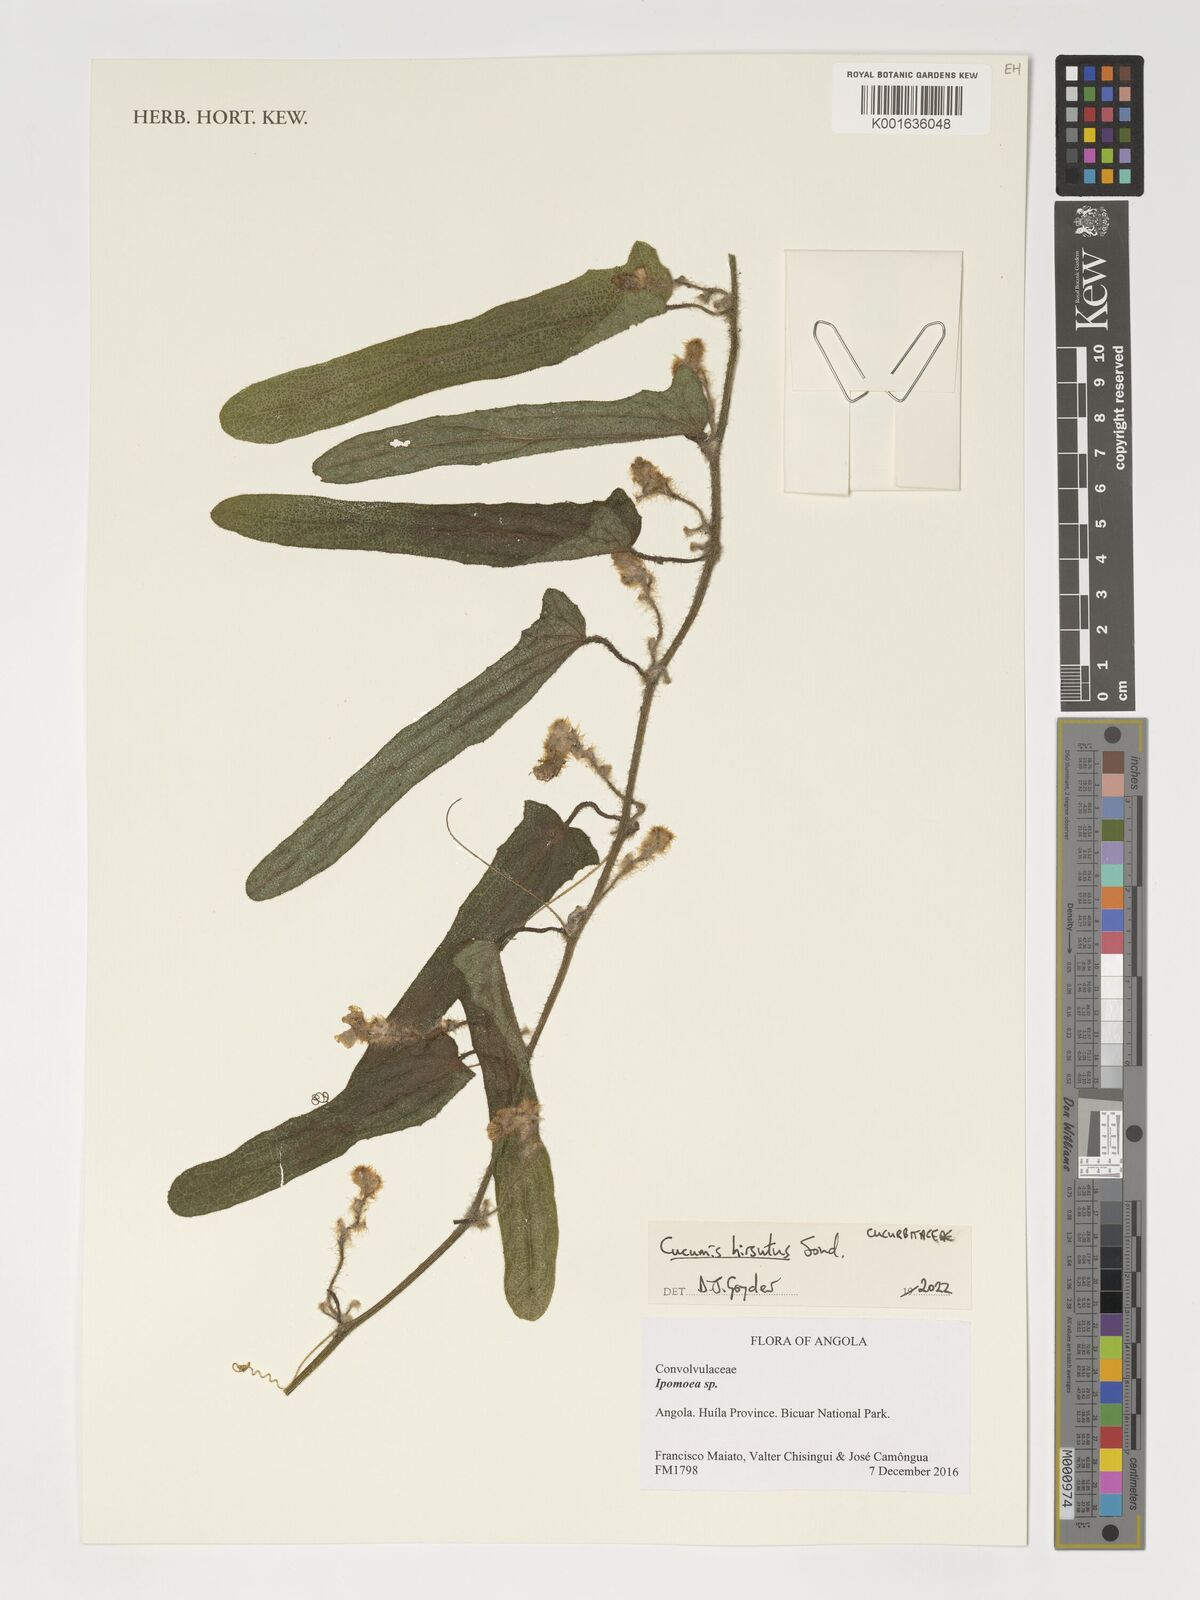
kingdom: Plantae
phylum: Tracheophyta
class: Magnoliopsida
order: Cucurbitales
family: Cucurbitaceae
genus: Cucumis
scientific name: Cucumis hirsutus
